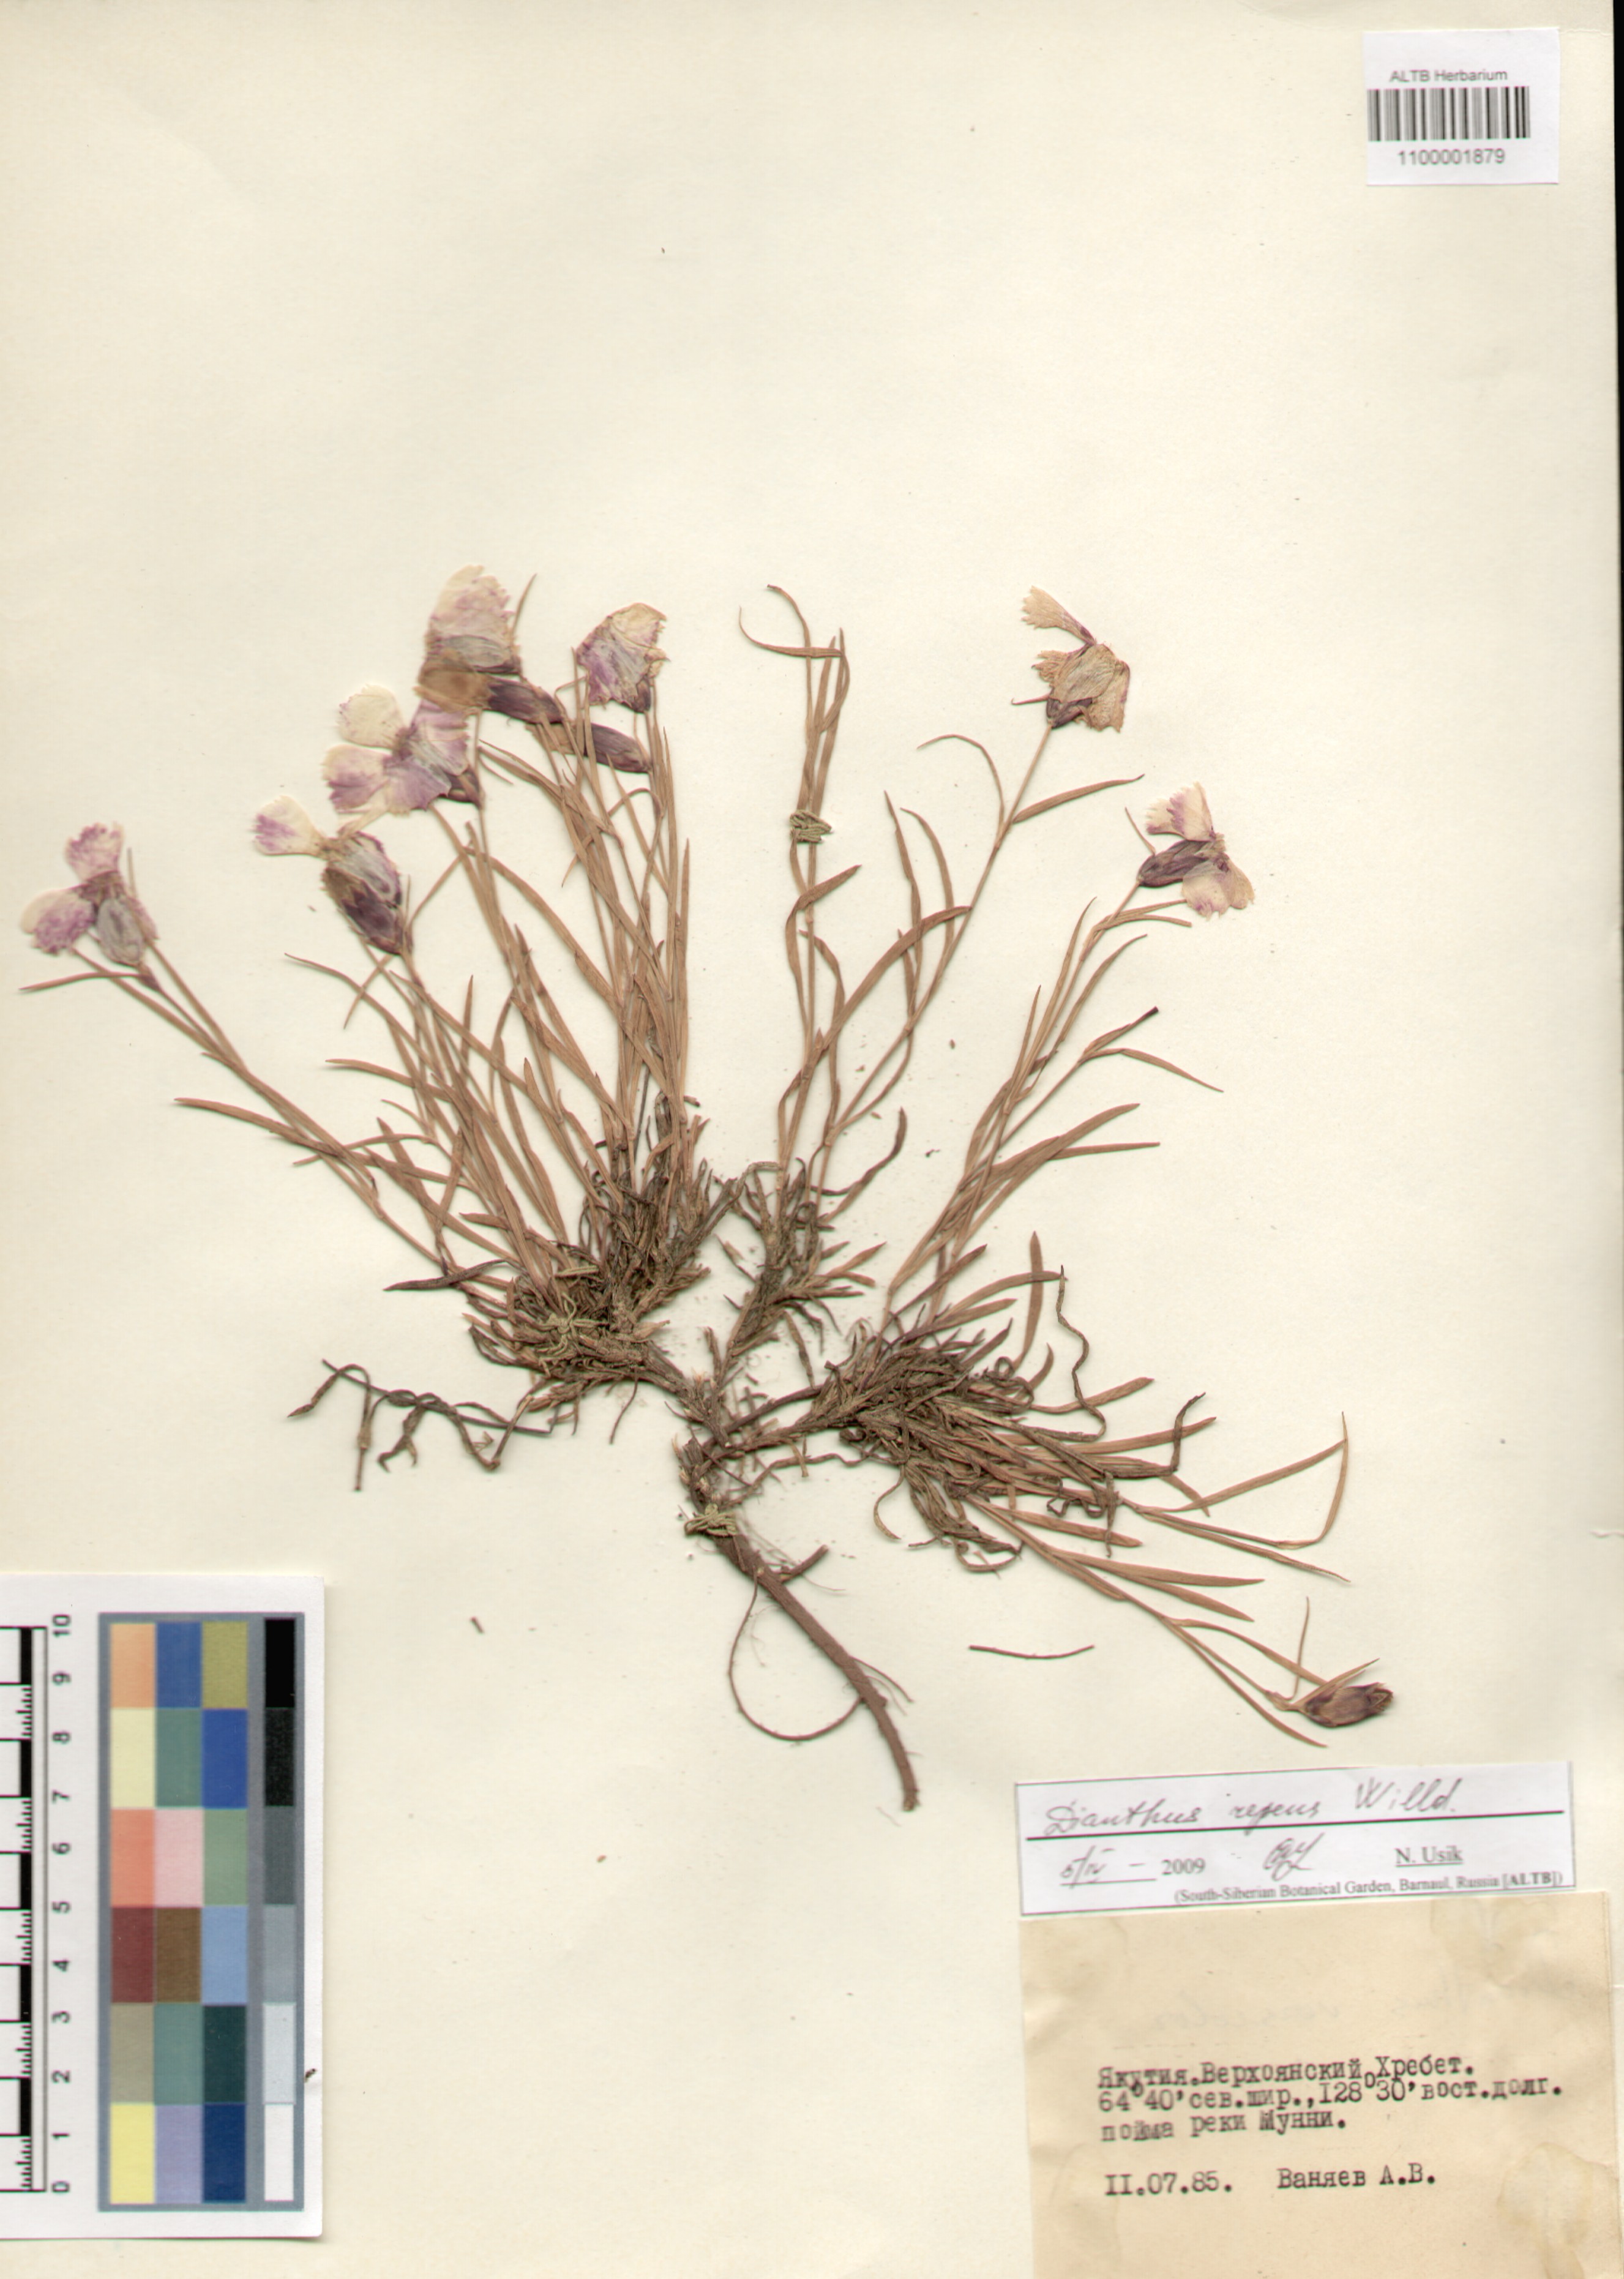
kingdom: Plantae
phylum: Tracheophyta
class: Magnoliopsida
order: Caryophyllales
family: Caryophyllaceae
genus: Dianthus
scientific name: Dianthus repens
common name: Northern pink
